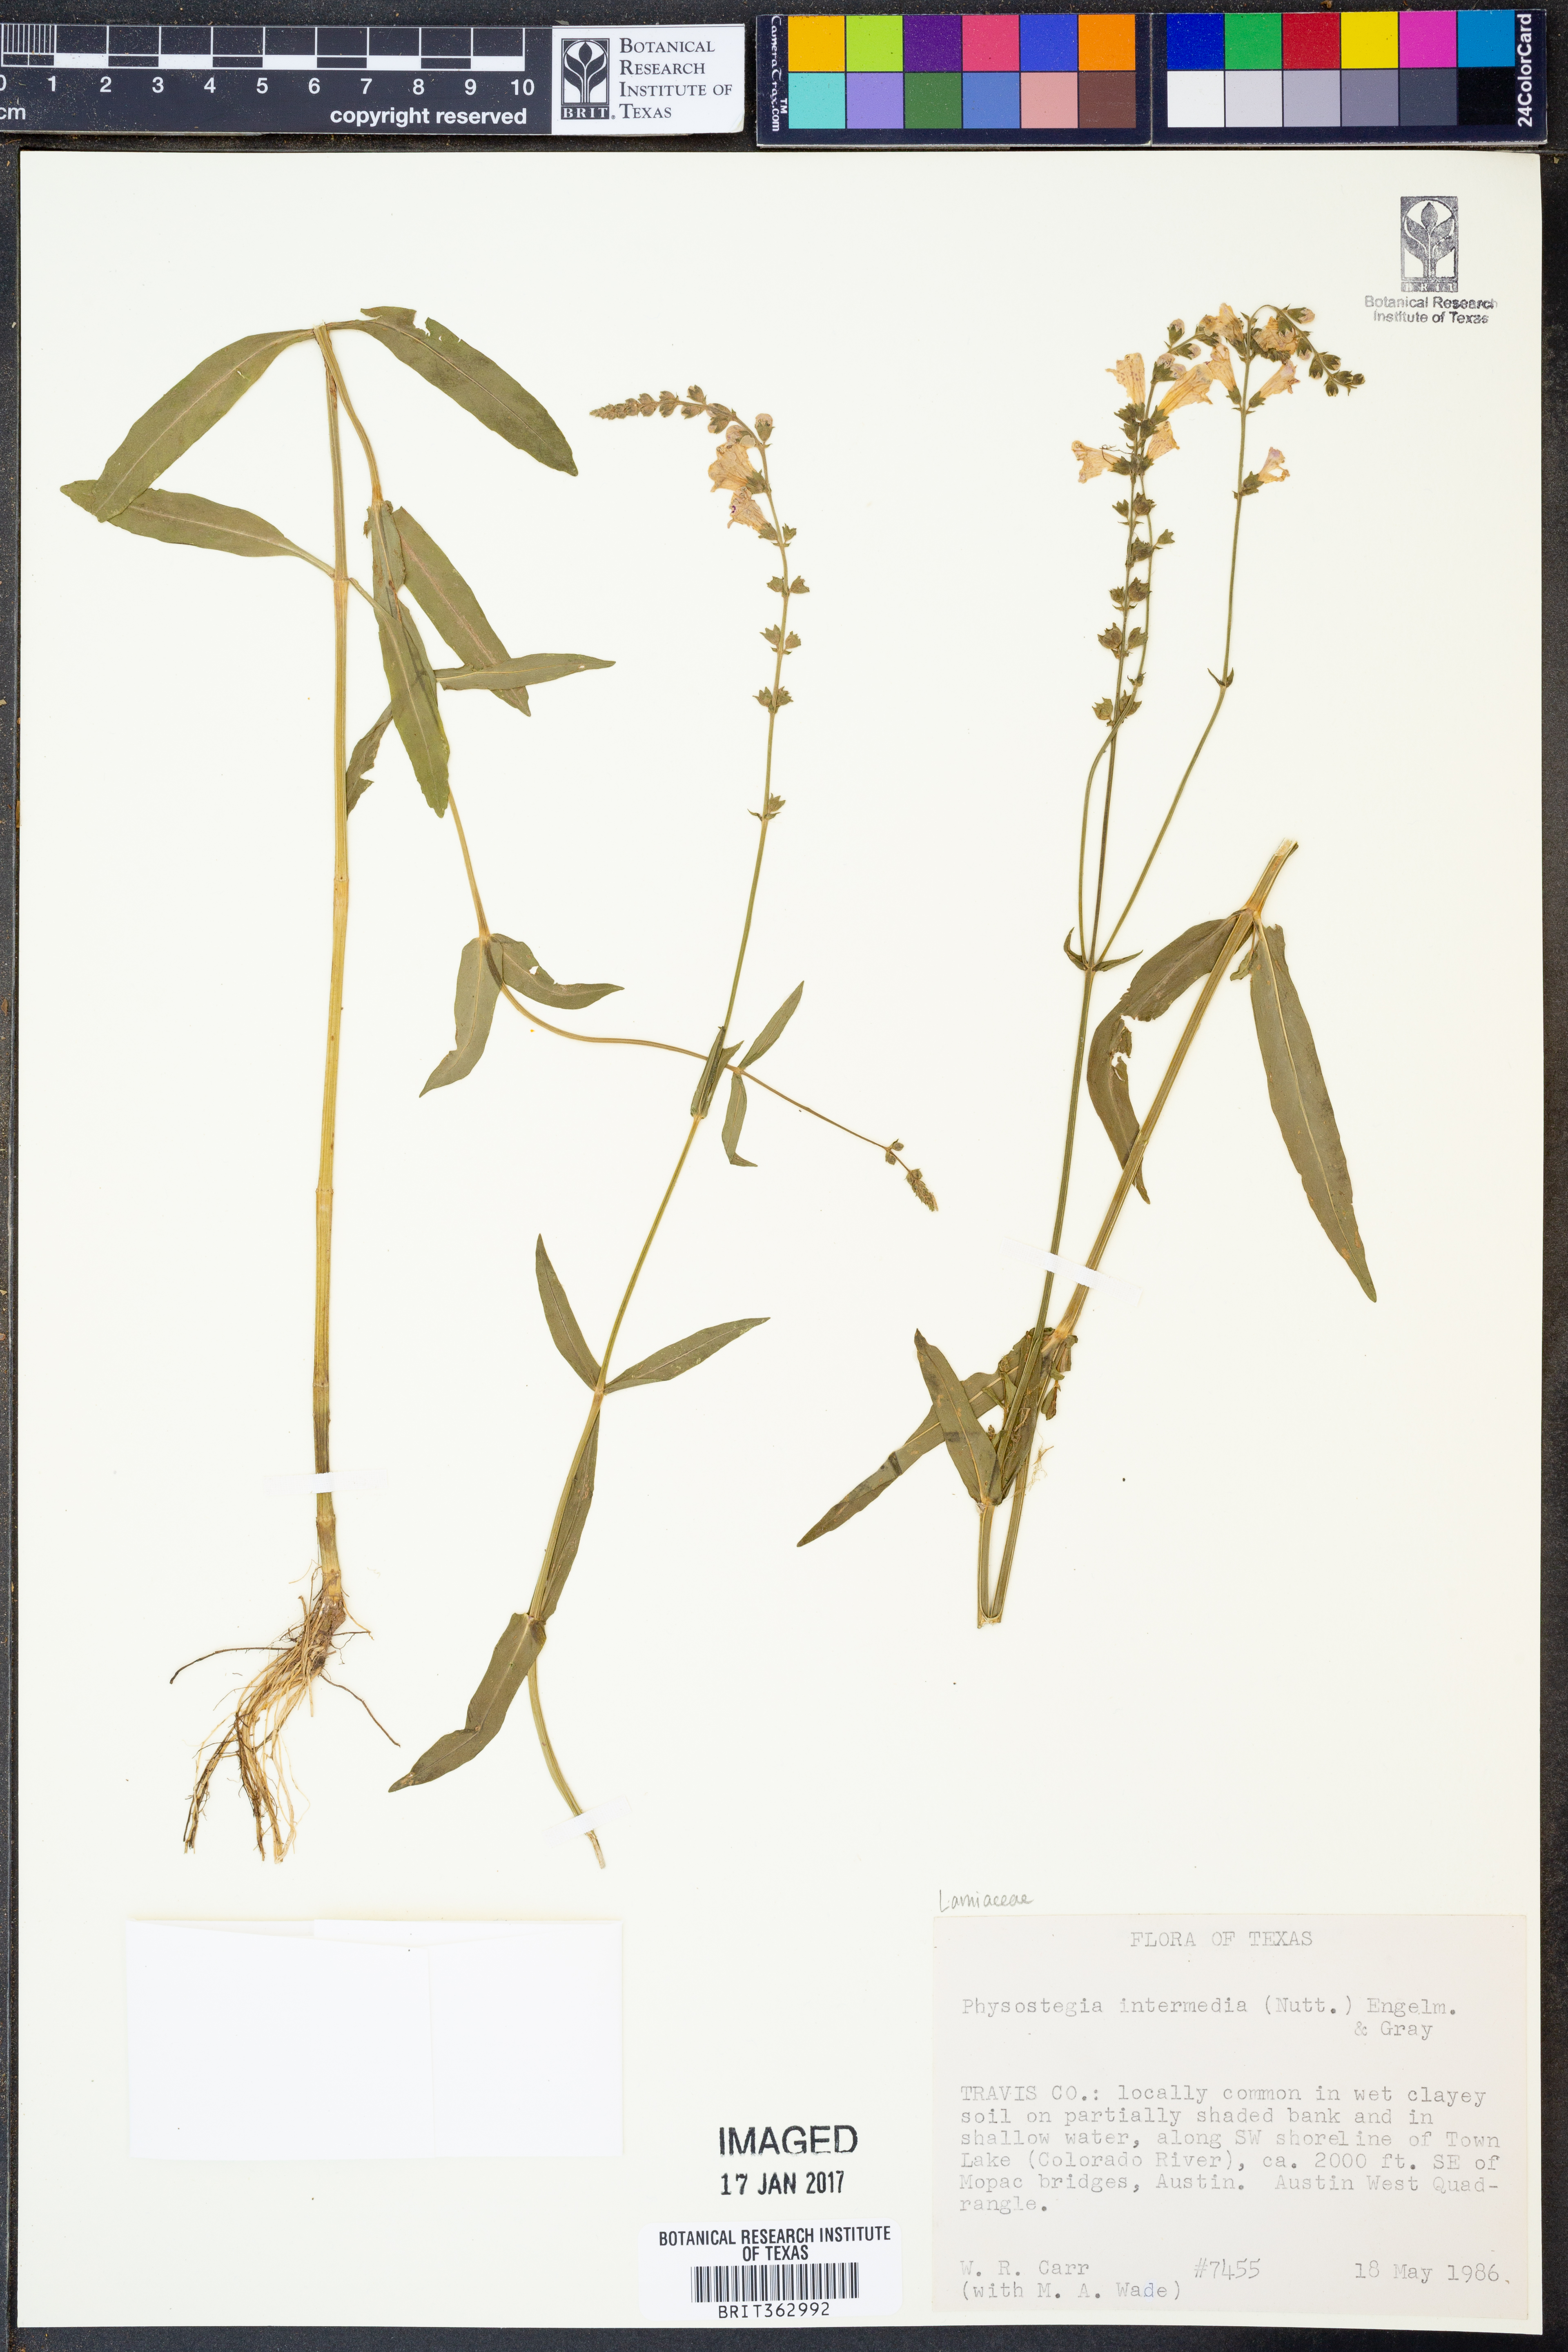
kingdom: Plantae
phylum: Tracheophyta
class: Magnoliopsida
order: Lamiales
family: Lamiaceae
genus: Physostegia
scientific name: Physostegia intermedia
